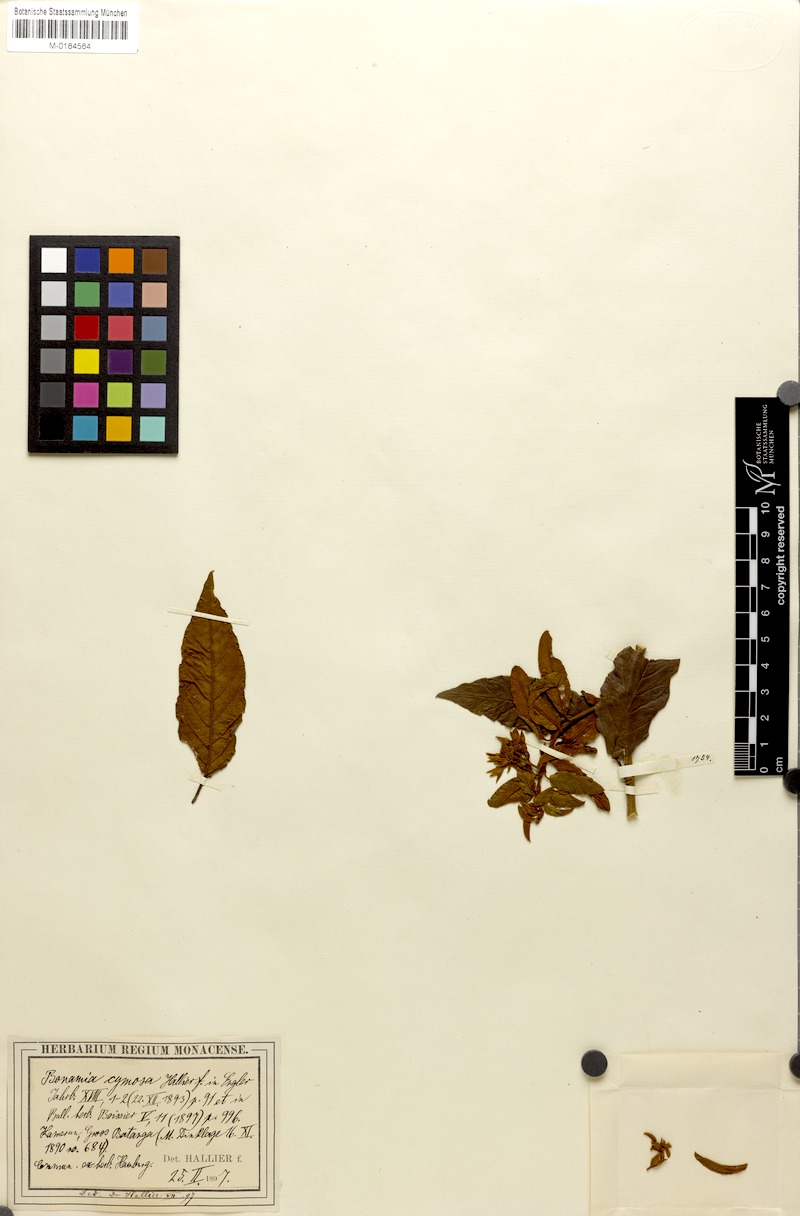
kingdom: Plantae
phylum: Tracheophyta
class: Magnoliopsida
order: Solanales
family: Convolvulaceae
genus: Bonamia
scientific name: Bonamia thunbergiana
